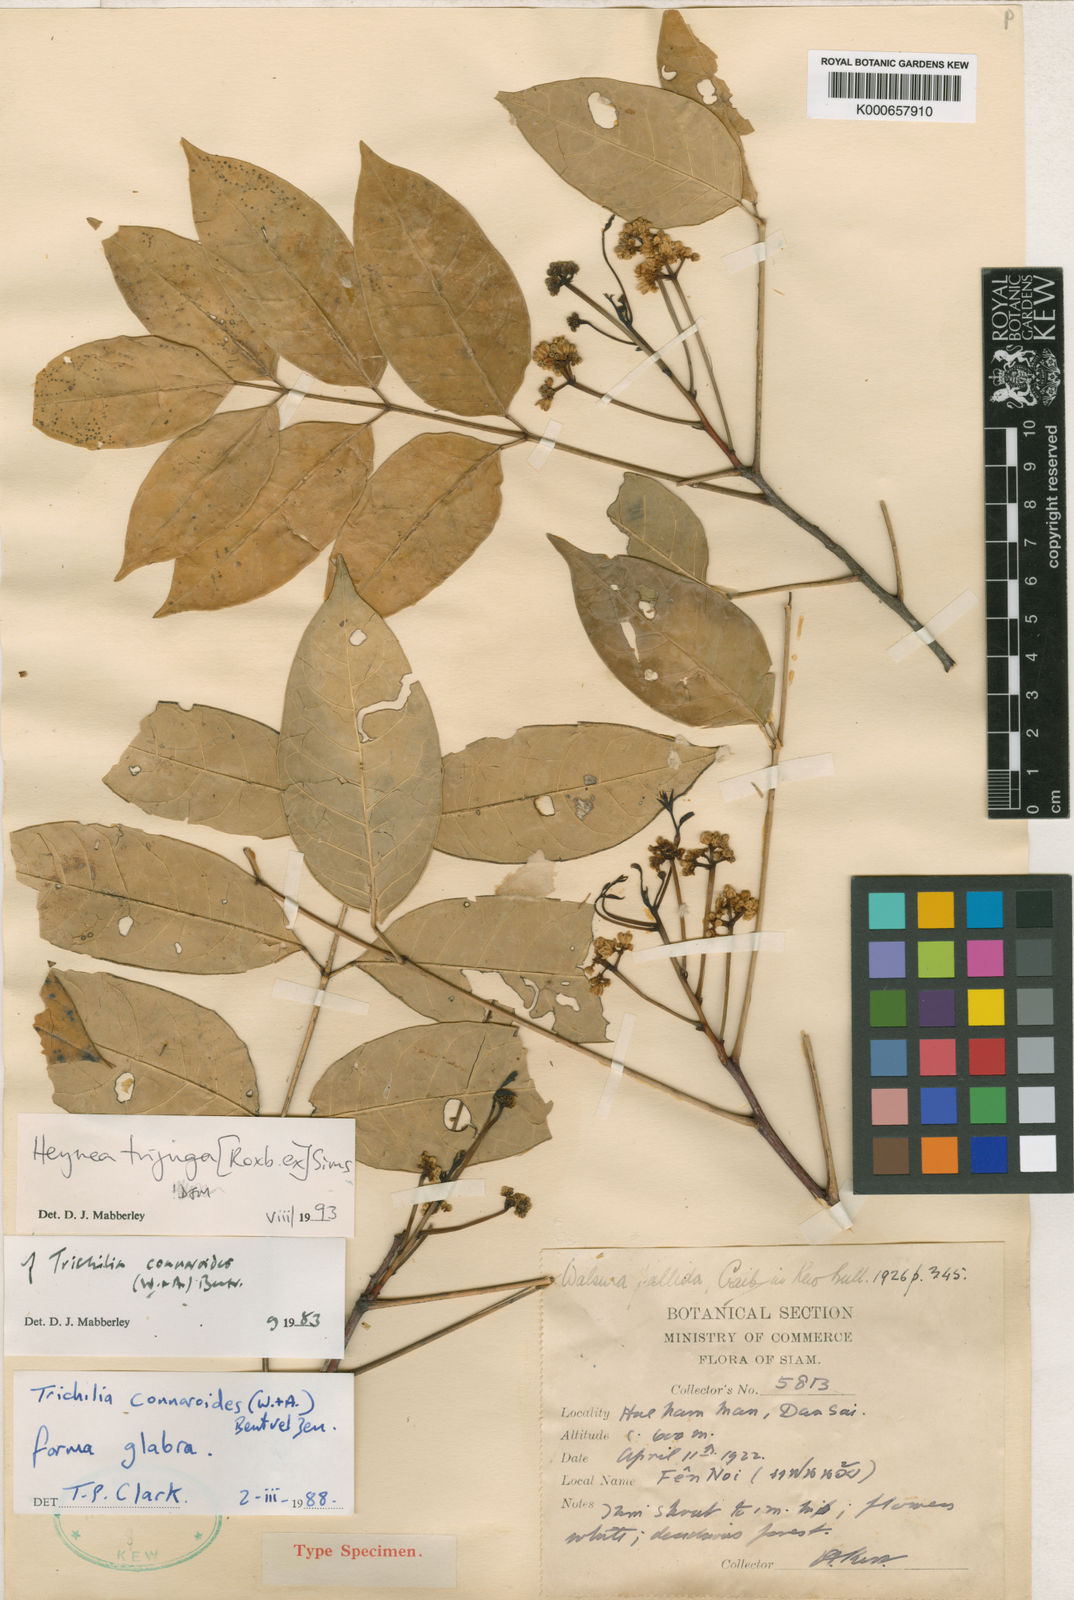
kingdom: Plantae
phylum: Tracheophyta
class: Magnoliopsida
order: Sapindales
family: Meliaceae
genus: Heynea
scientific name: Heynea trijuga
